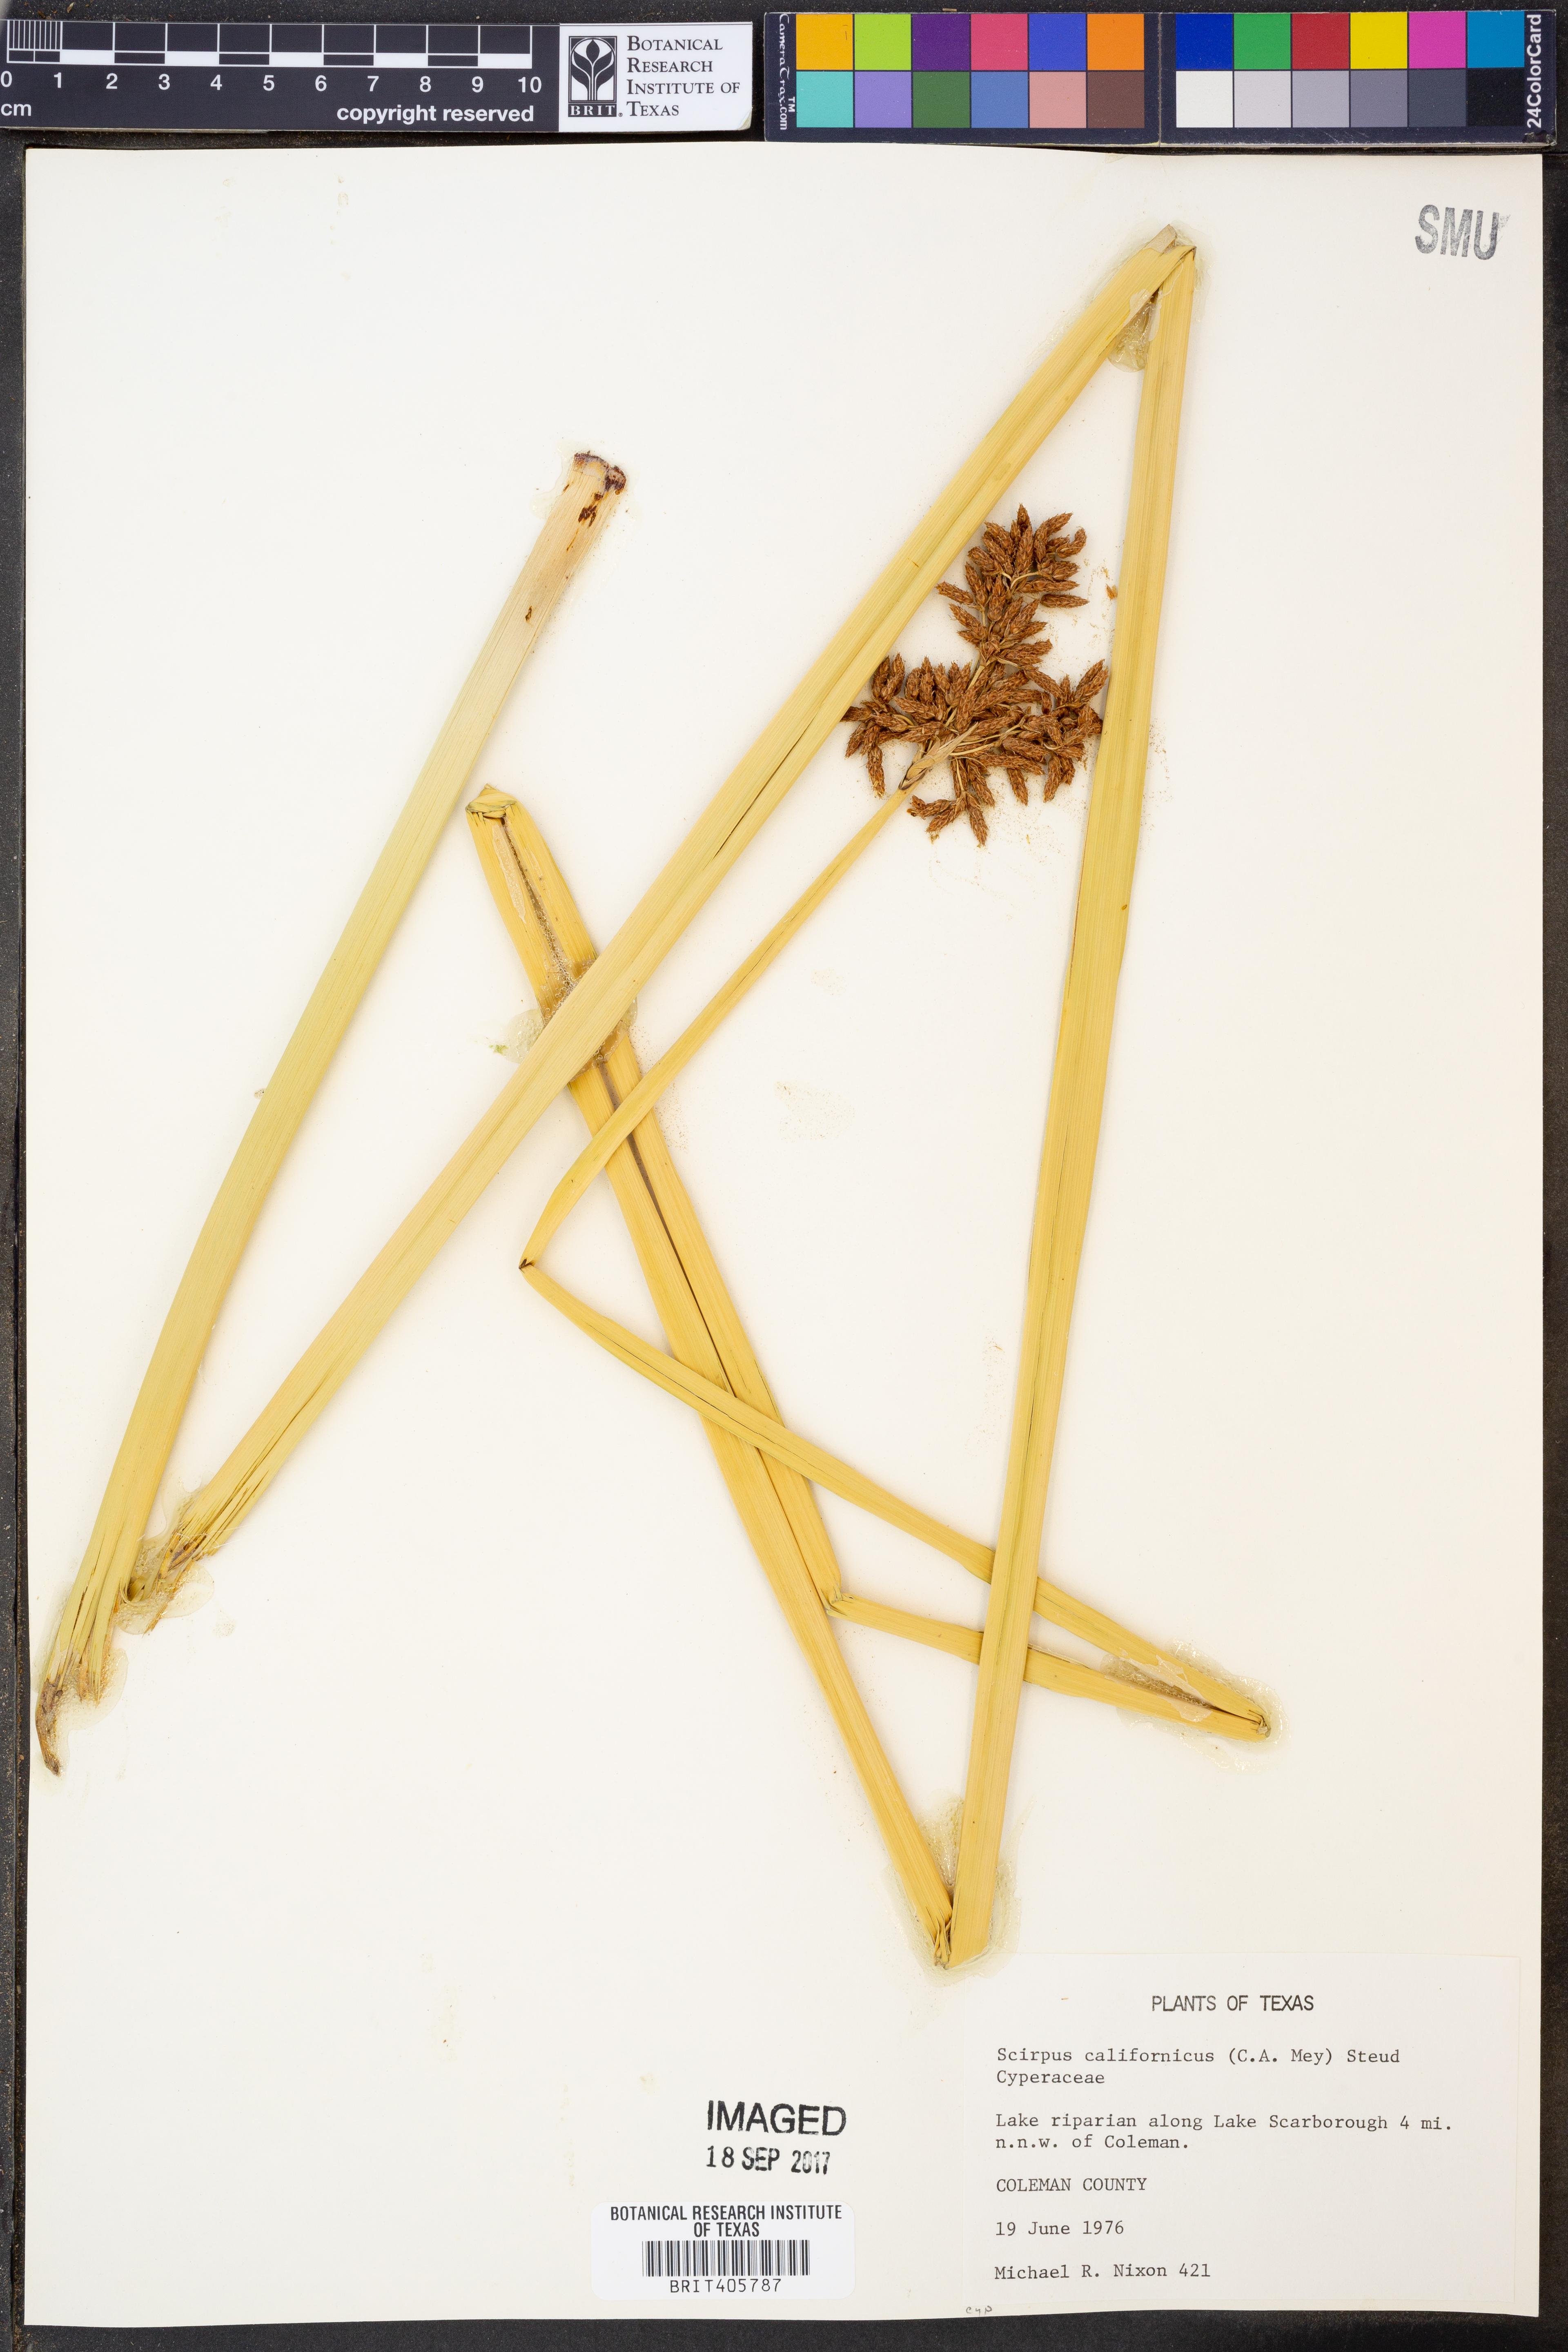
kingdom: Plantae
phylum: Tracheophyta
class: Liliopsida
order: Poales
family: Cyperaceae
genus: Schoenoplectus
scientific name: Schoenoplectus californicus
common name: California bulrush
